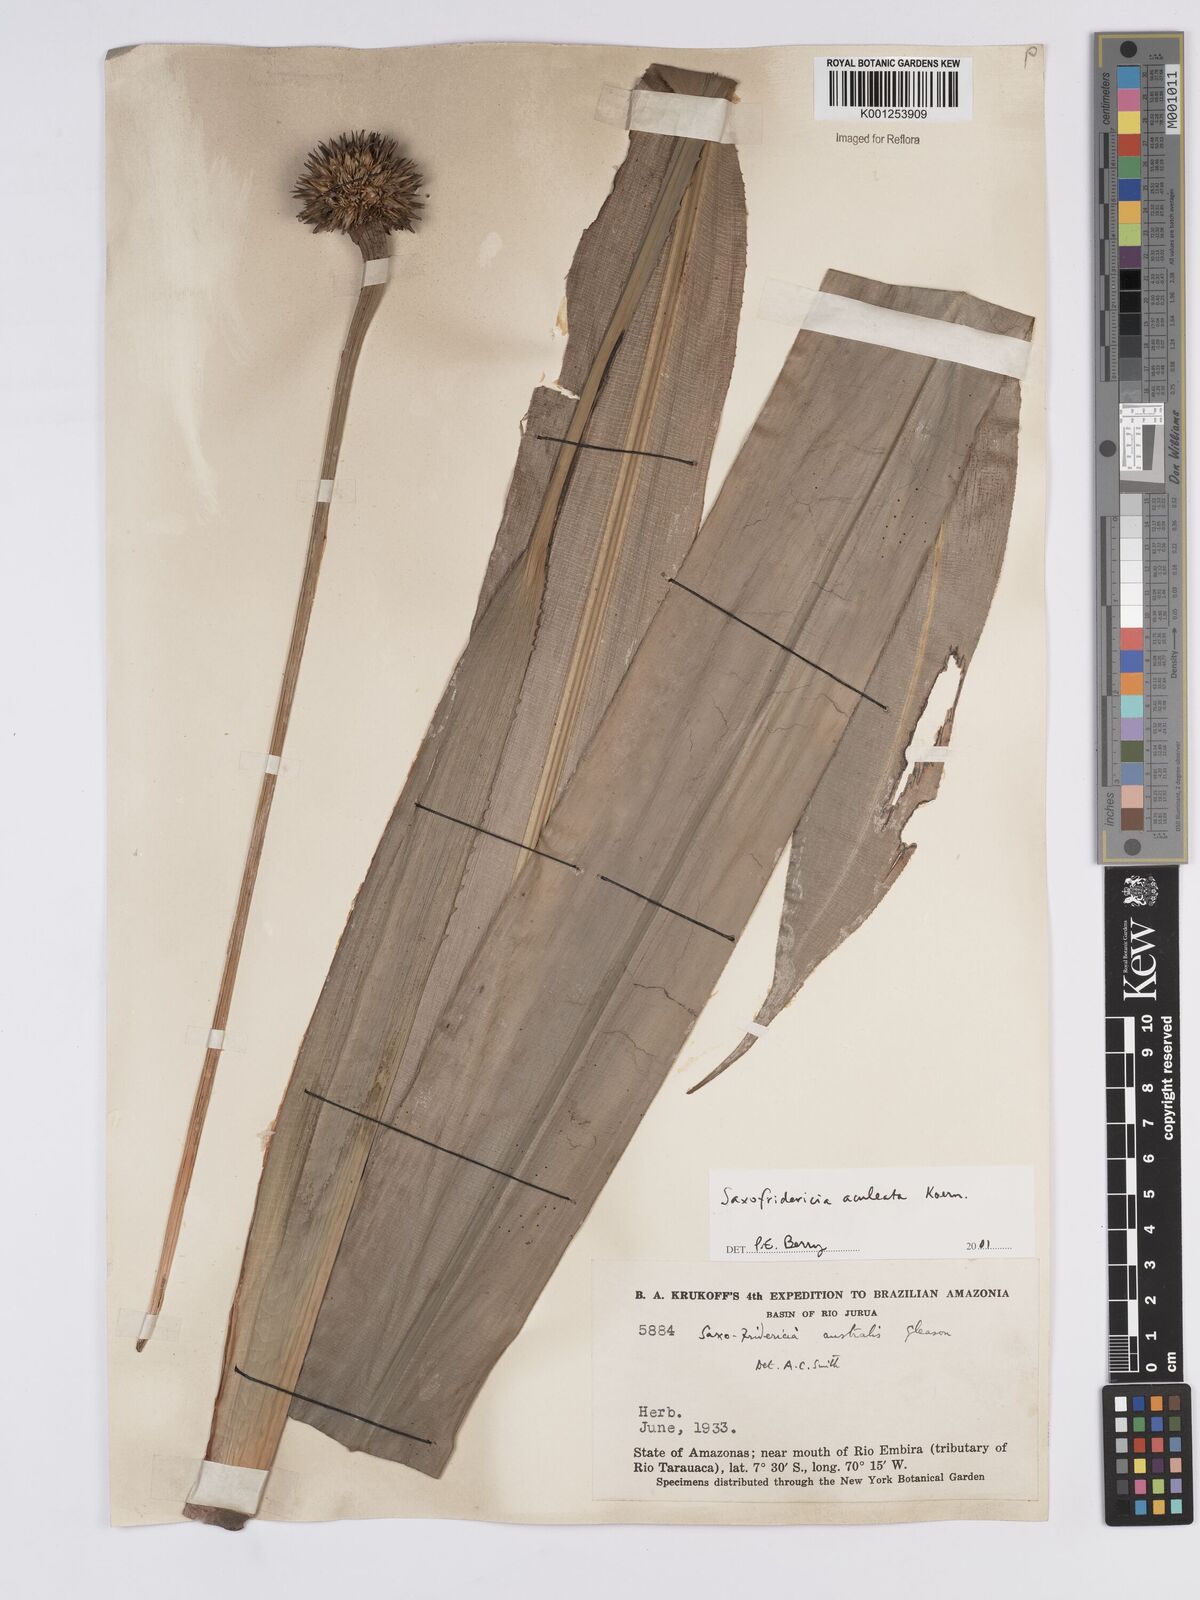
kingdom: Plantae
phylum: Tracheophyta
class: Liliopsida
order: Poales
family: Rapateaceae
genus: Saxofridericia
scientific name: Saxofridericia aculeata
